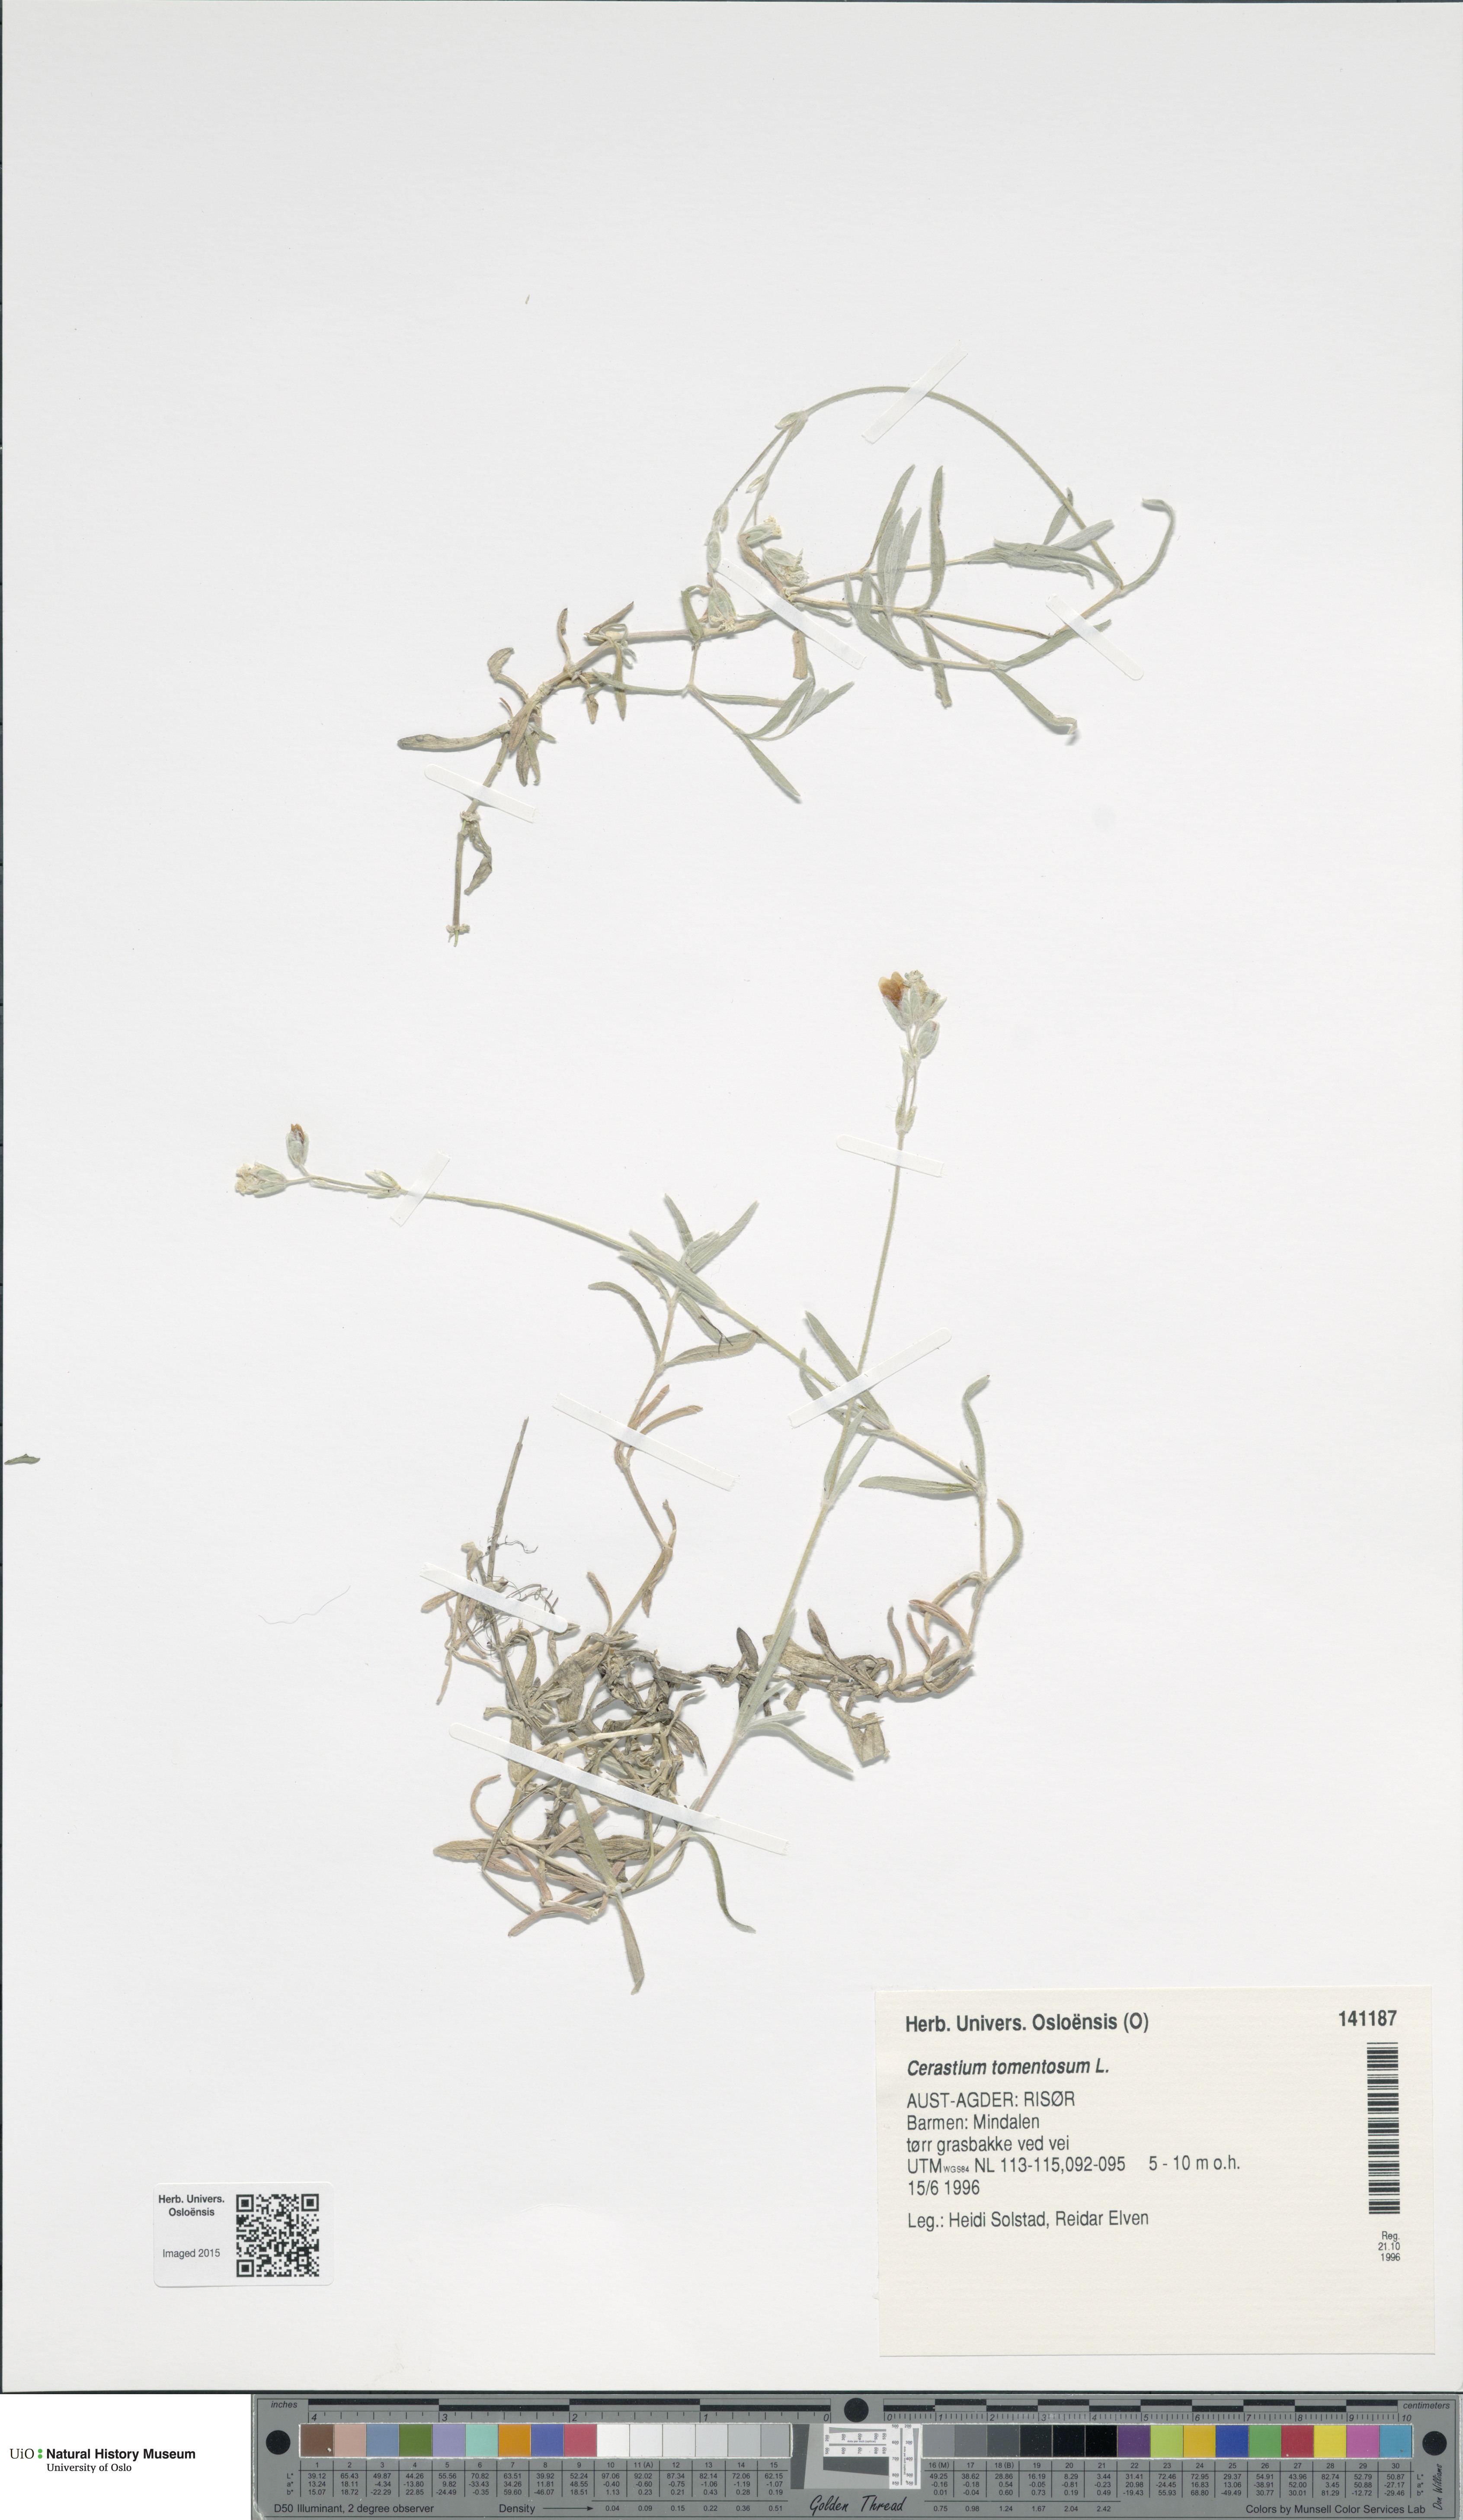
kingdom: Plantae
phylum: Tracheophyta
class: Magnoliopsida
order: Caryophyllales
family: Caryophyllaceae
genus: Cerastium
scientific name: Cerastium tomentosum
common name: Snow-in-summer
